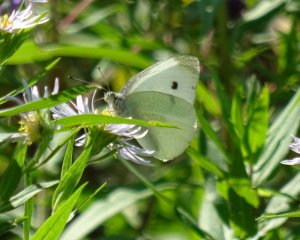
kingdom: Animalia
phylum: Arthropoda
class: Insecta
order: Lepidoptera
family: Pieridae
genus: Pieris
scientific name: Pieris rapae
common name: Cabbage White
